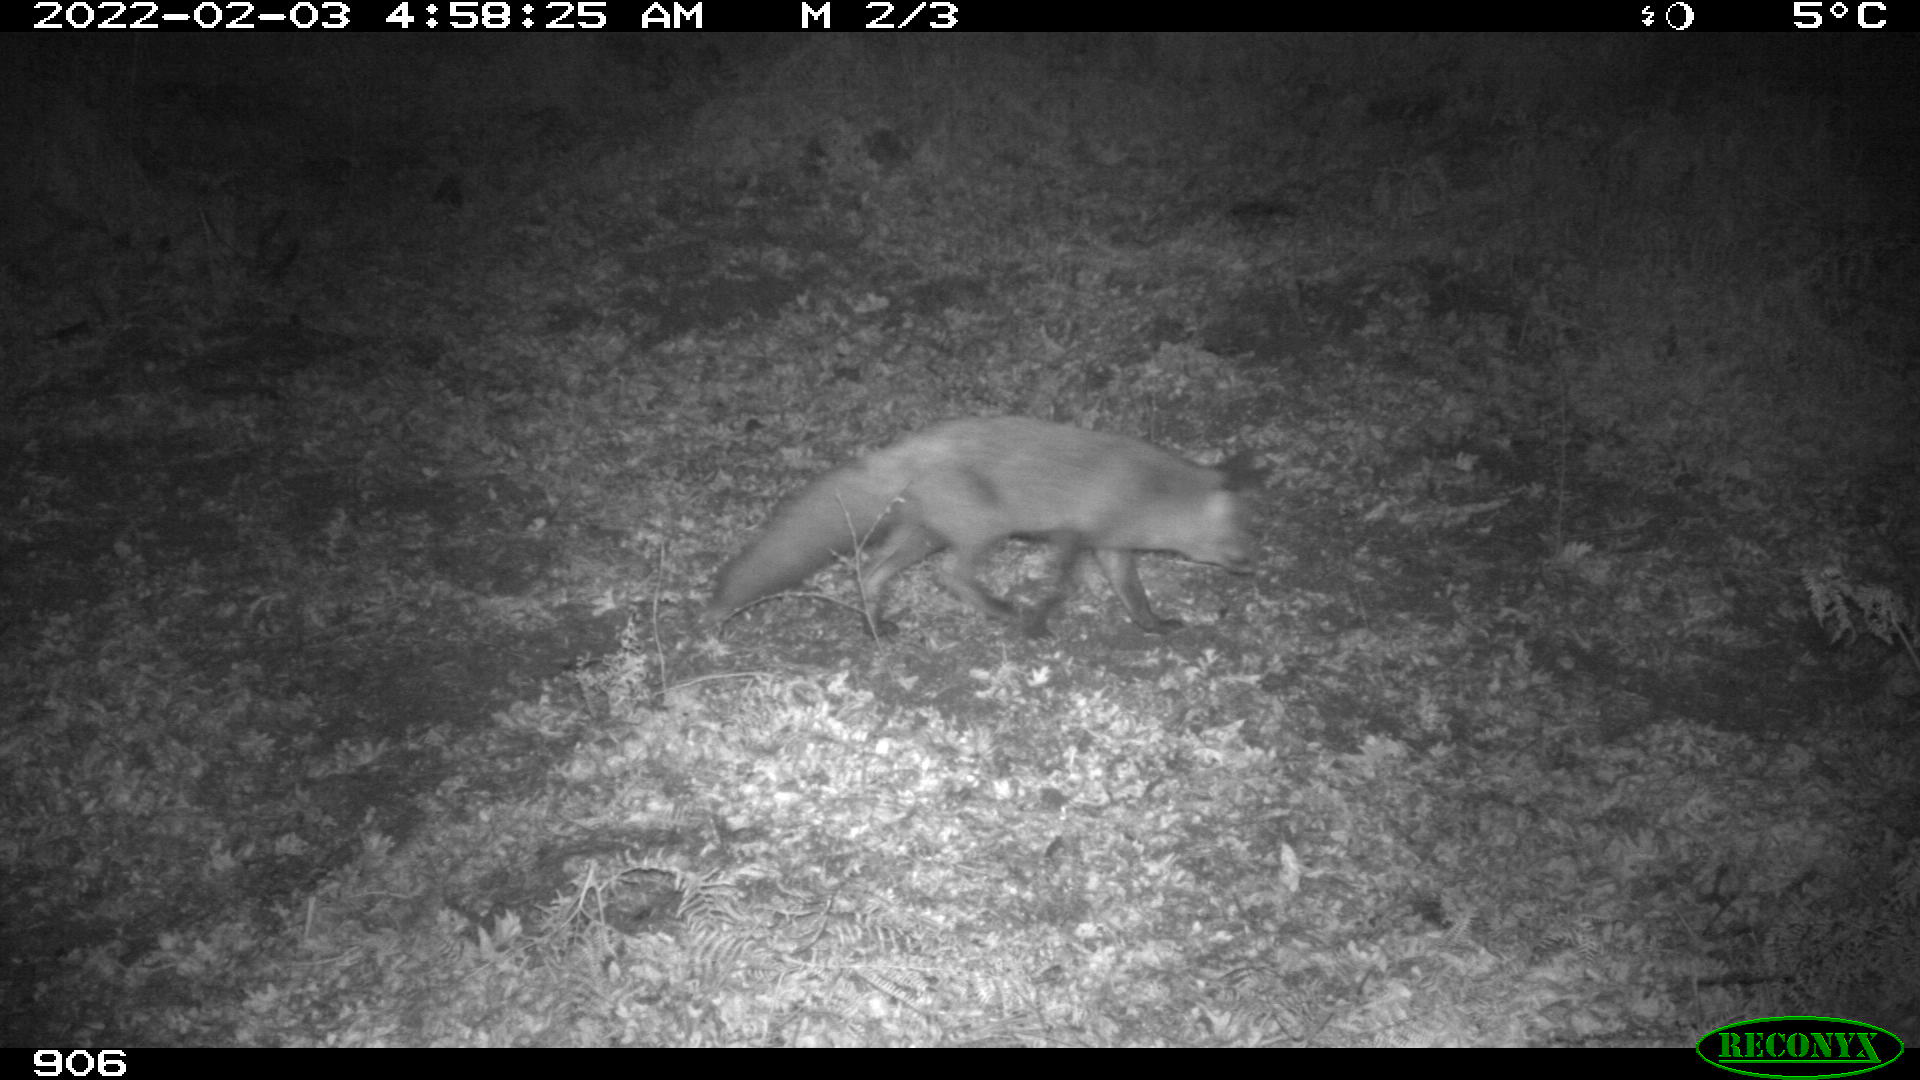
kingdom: Animalia
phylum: Chordata
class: Mammalia
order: Carnivora
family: Canidae
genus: Vulpes
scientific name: Vulpes vulpes
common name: Red fox
